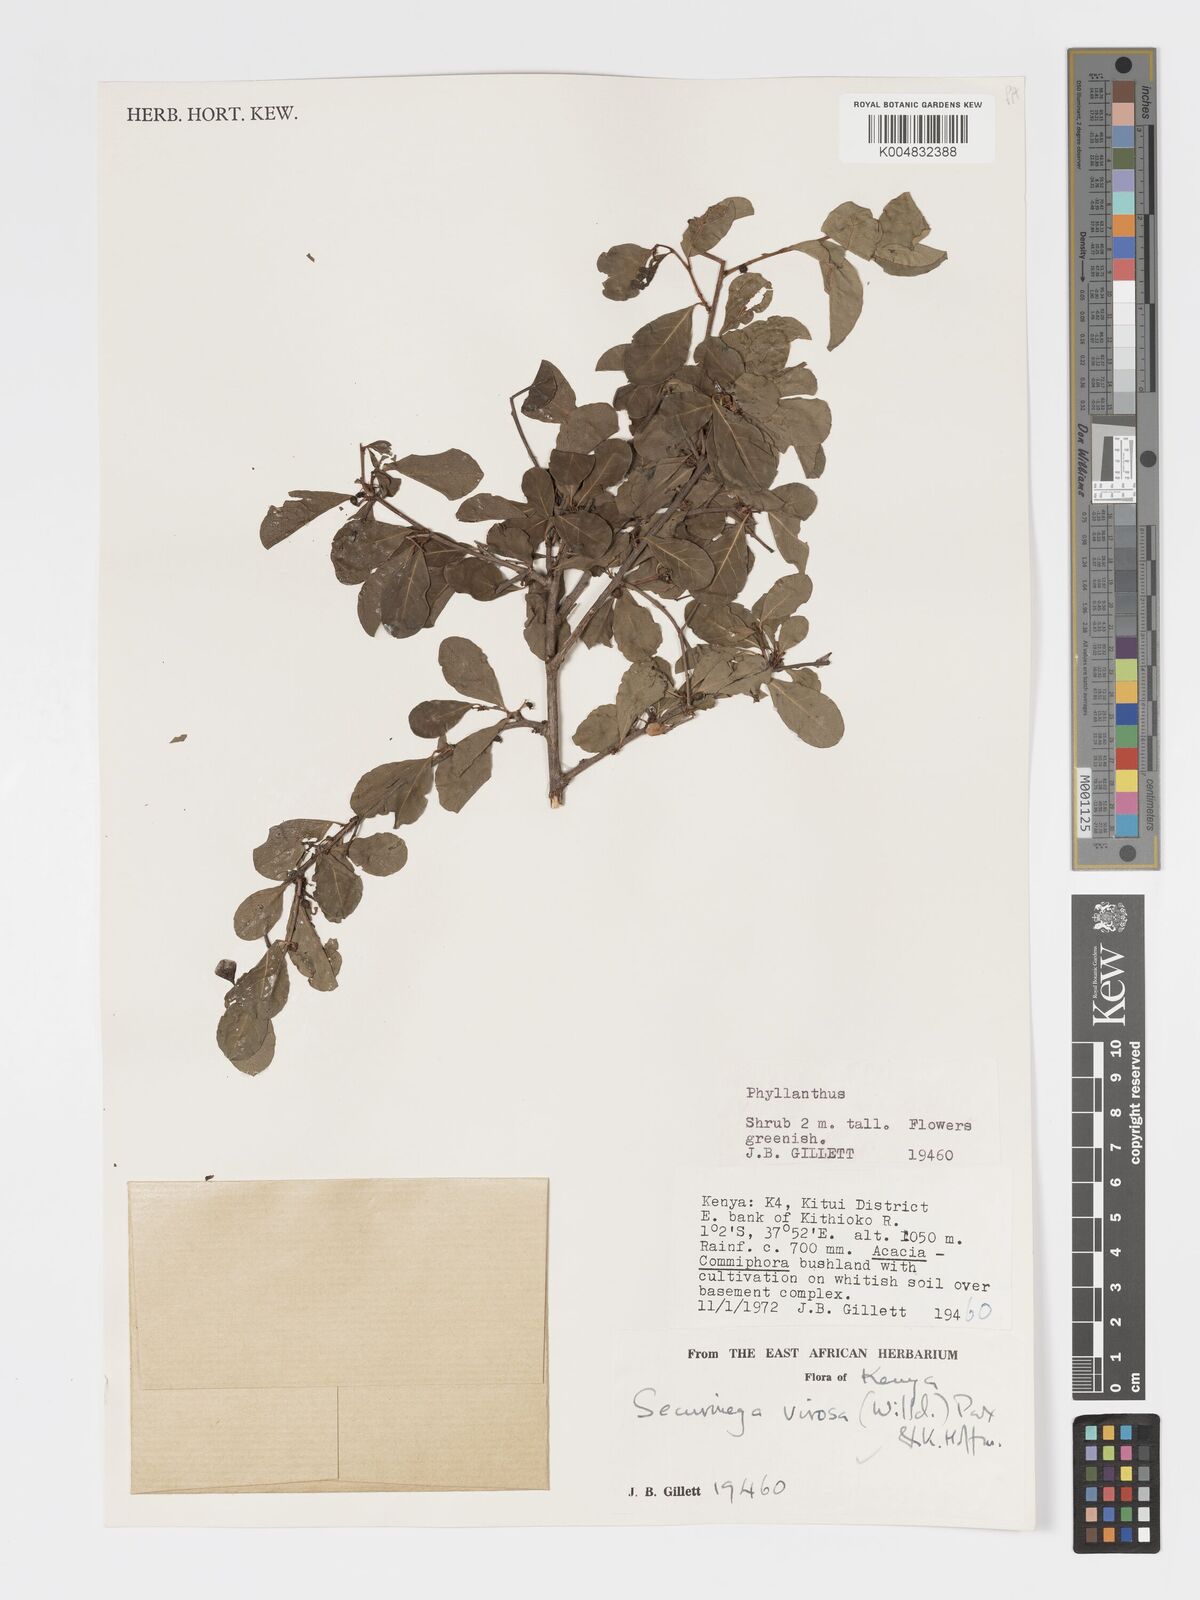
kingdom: Plantae
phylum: Tracheophyta
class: Magnoliopsida
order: Malpighiales
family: Phyllanthaceae
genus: Flueggea
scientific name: Flueggea
